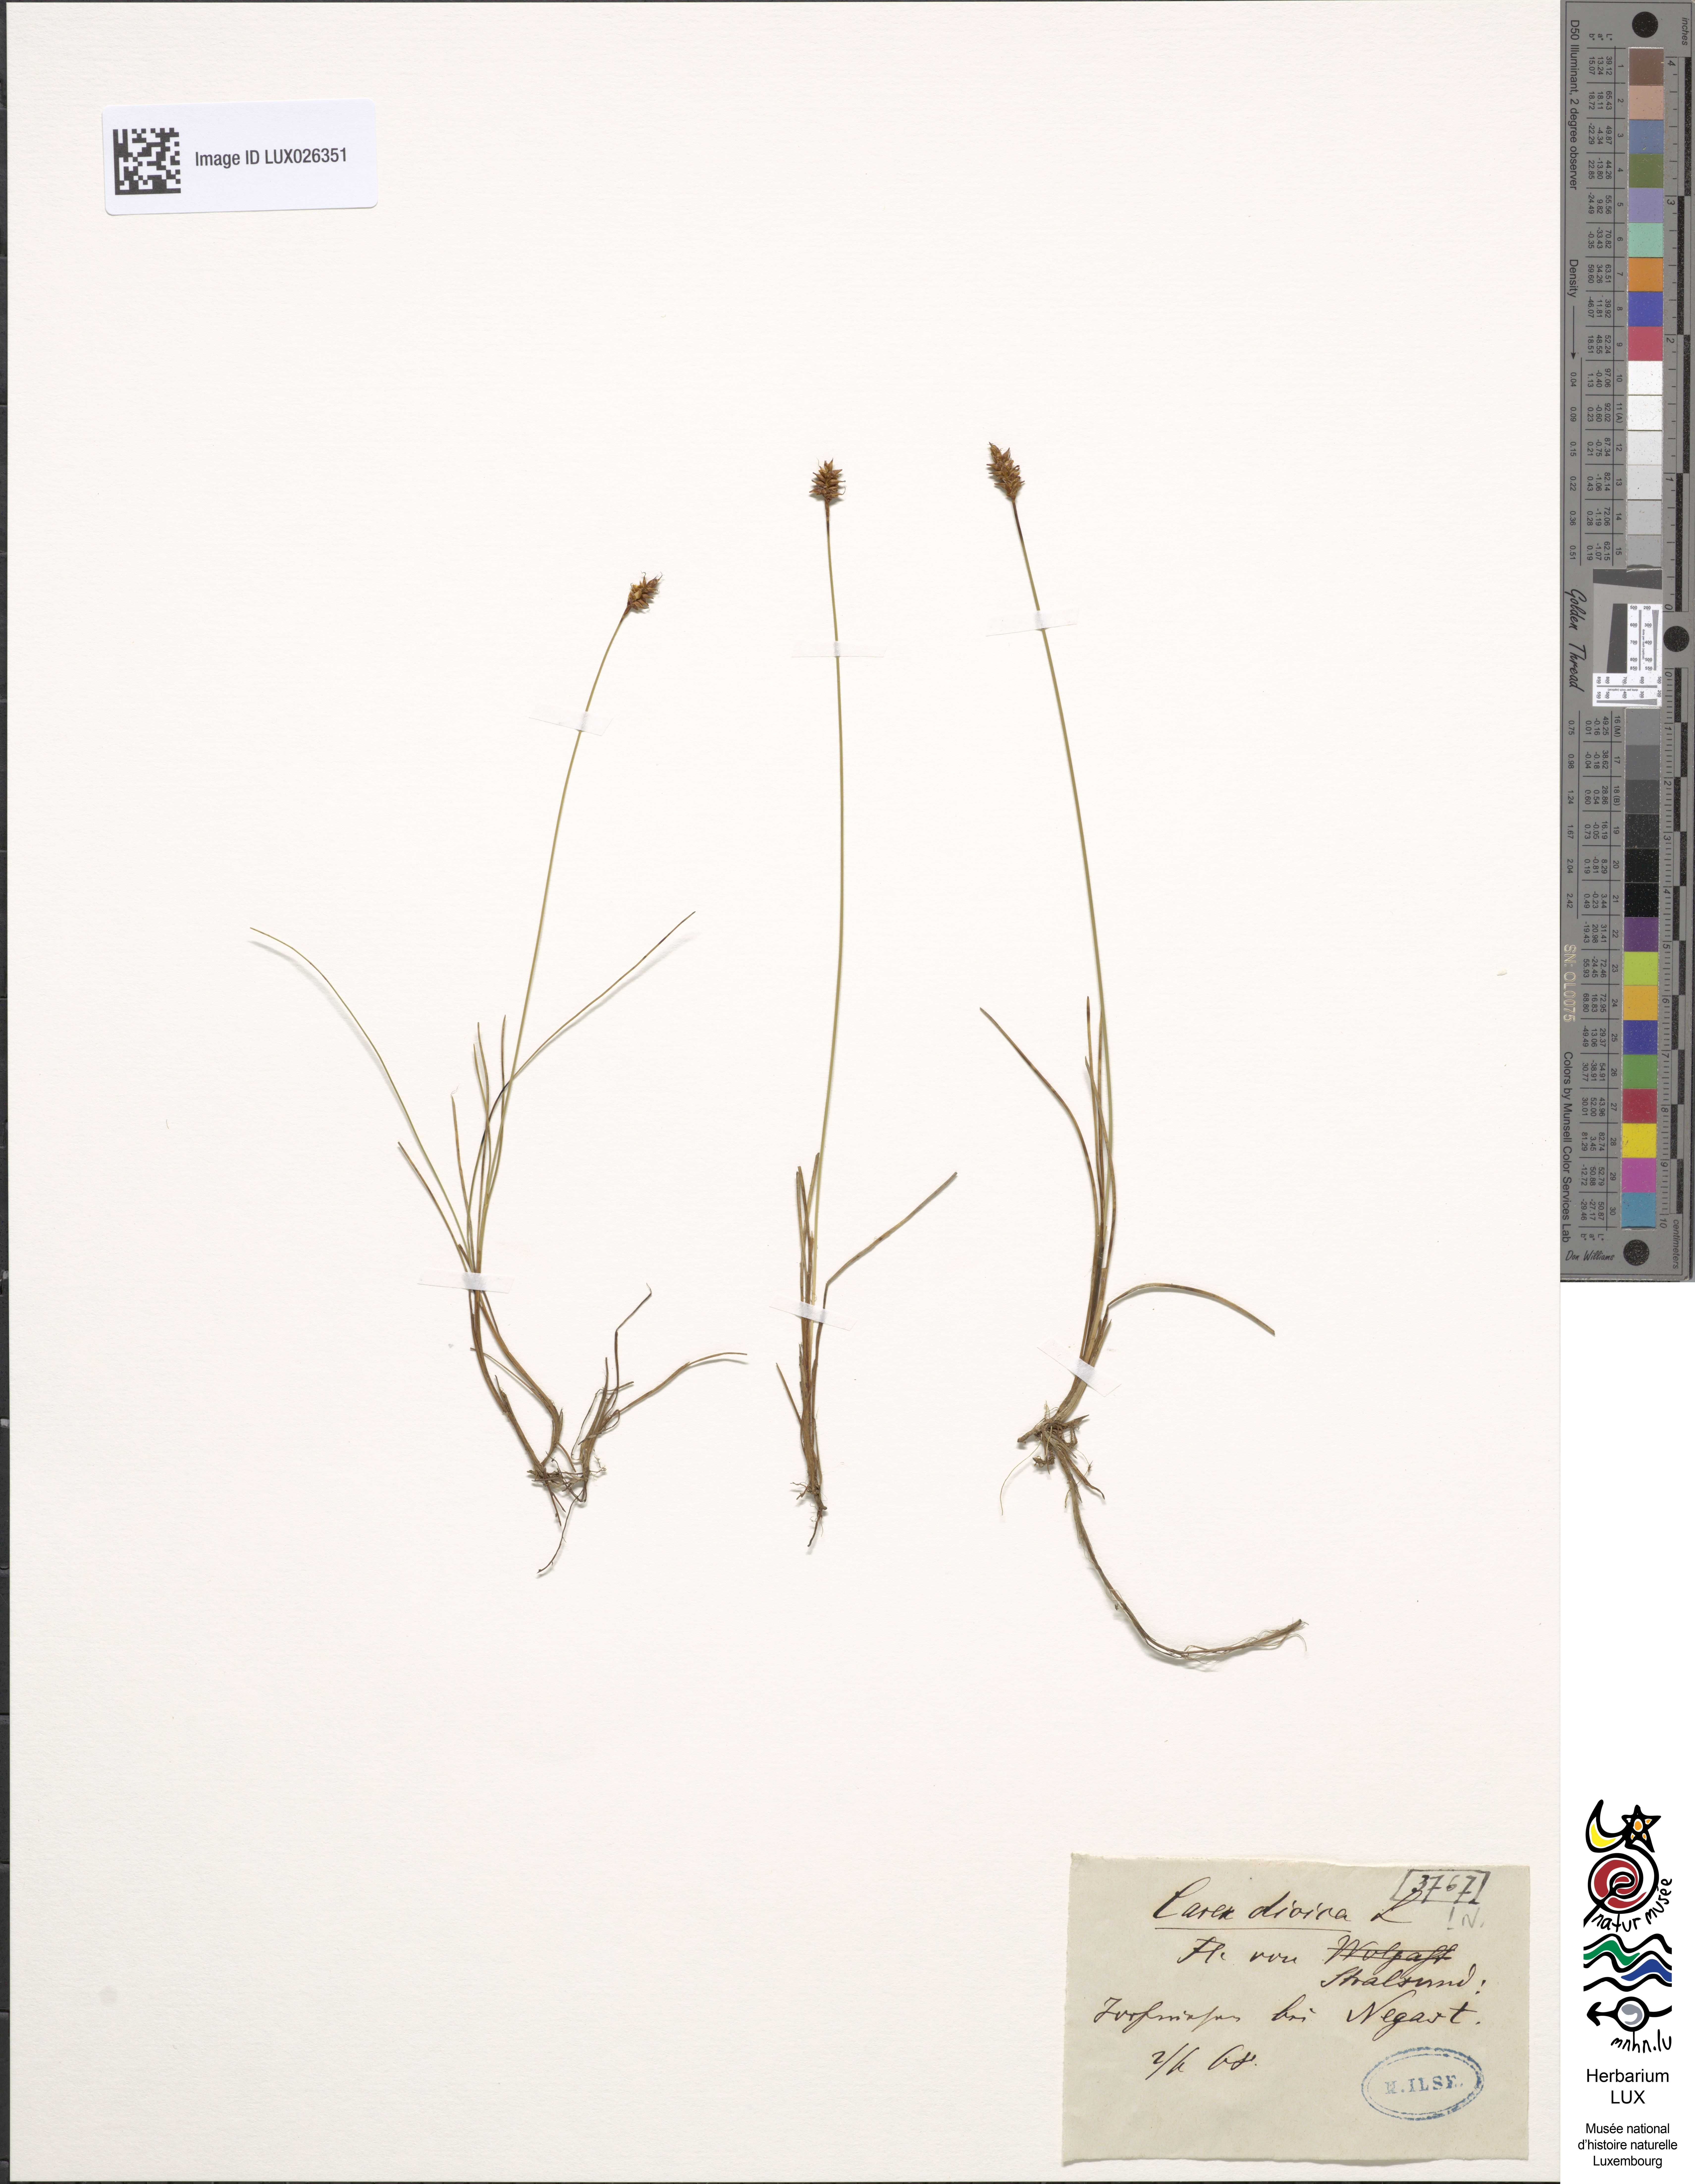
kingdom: Plantae
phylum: Tracheophyta
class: Liliopsida
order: Poales
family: Cyperaceae
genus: Carex
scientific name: Carex dioica
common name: Dioecious sedge
